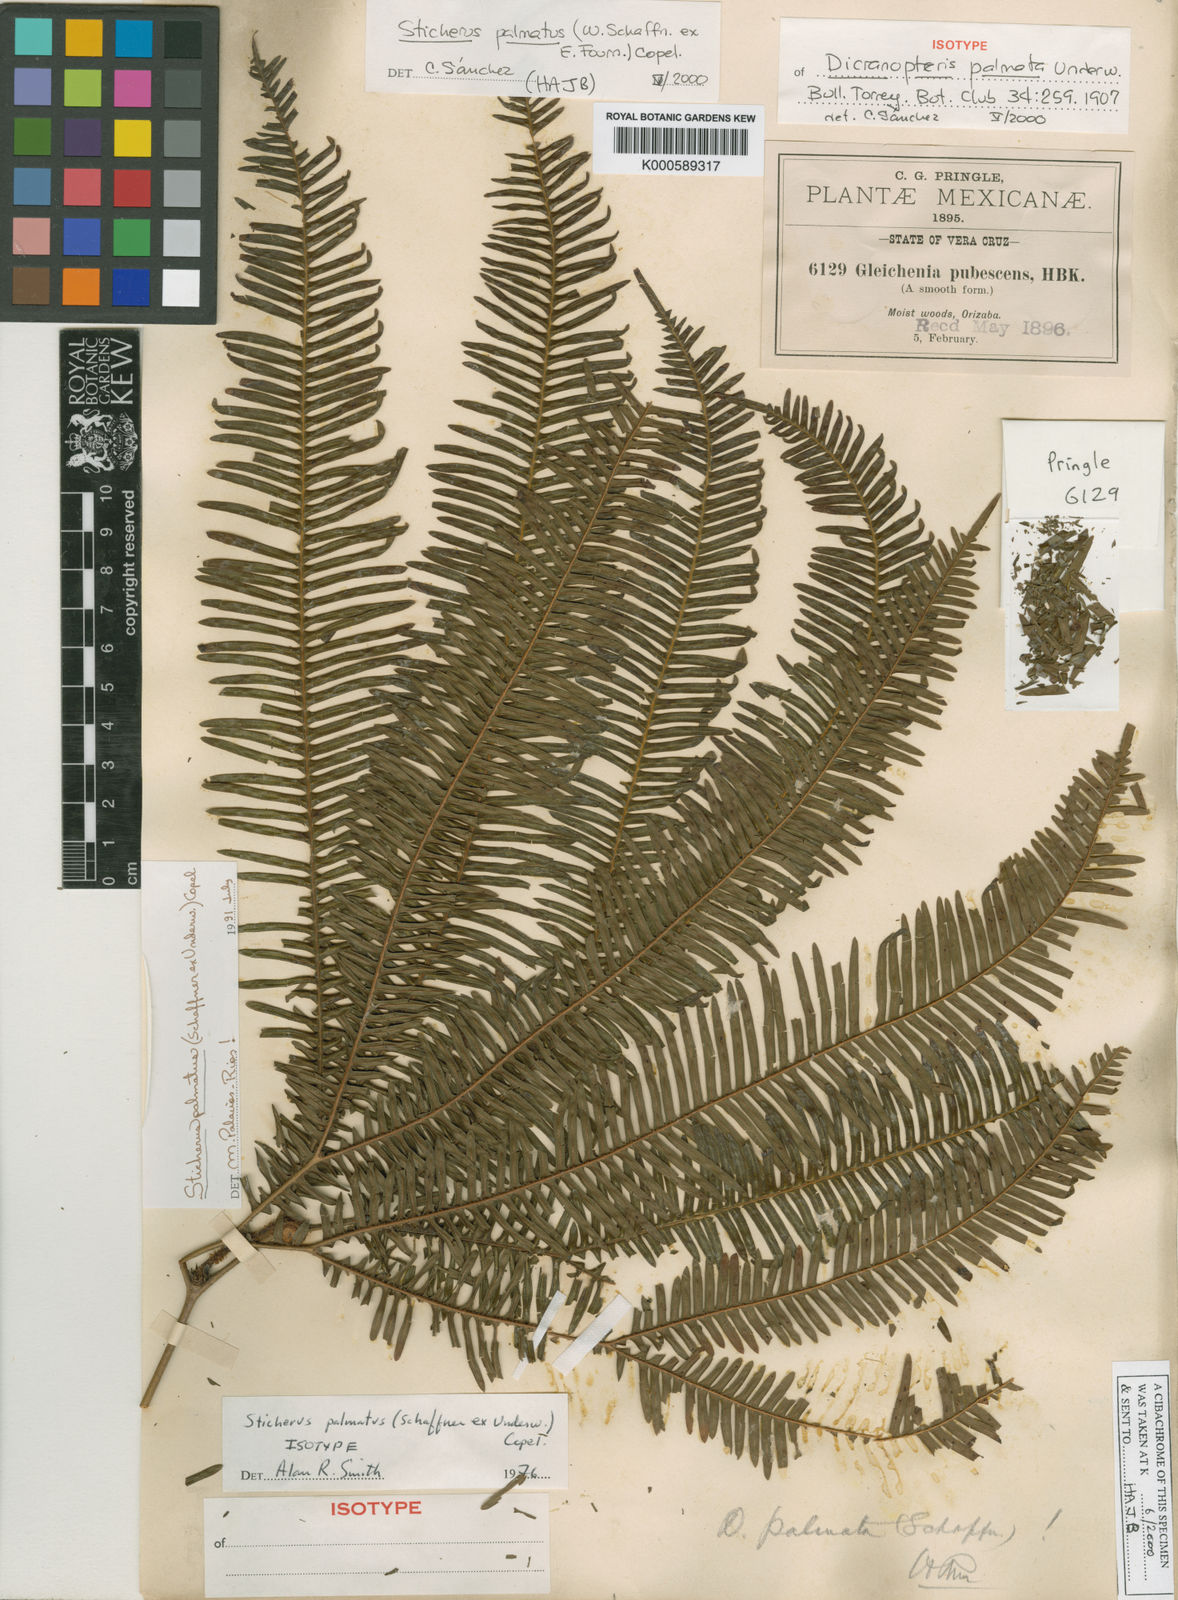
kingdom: Plantae
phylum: Tracheophyta
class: Polypodiopsida
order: Gleicheniales
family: Gleicheniaceae
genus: Sticherus
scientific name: Sticherus furcatus
